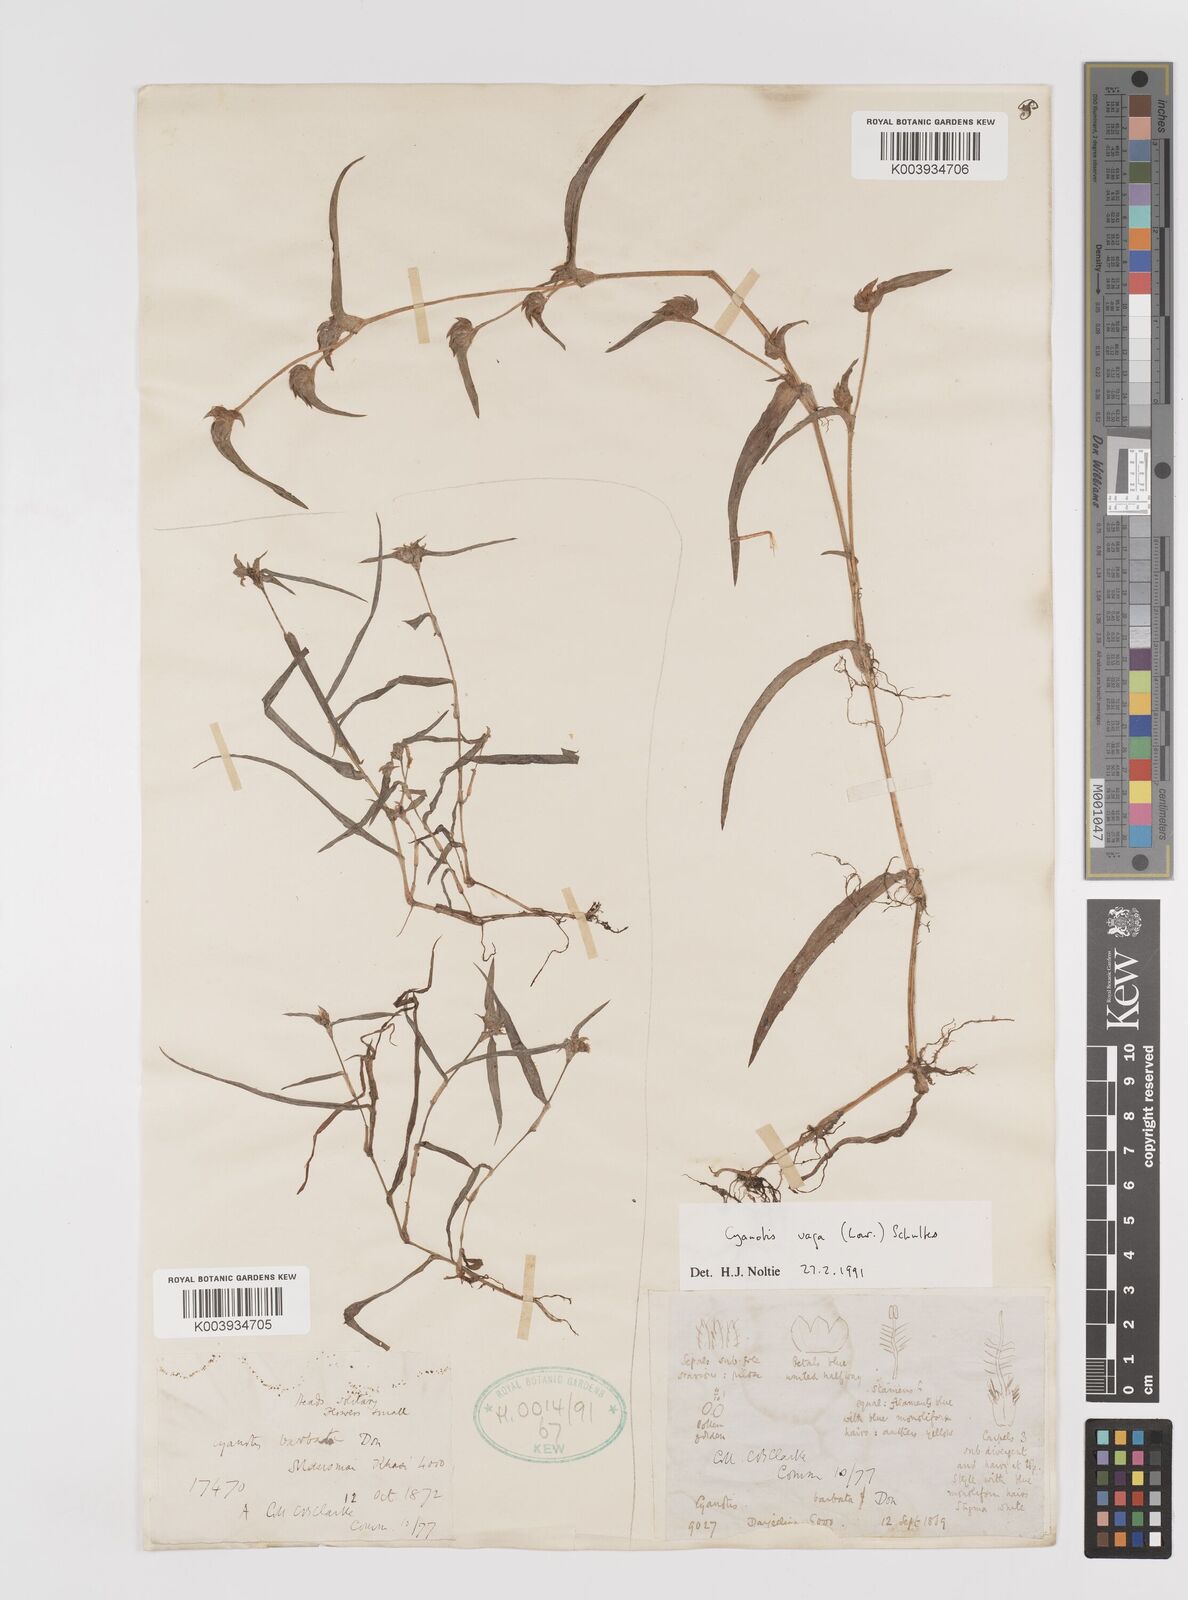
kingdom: Plantae
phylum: Tracheophyta
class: Liliopsida
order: Commelinales
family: Commelinaceae
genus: Cyanotis
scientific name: Cyanotis vaga
